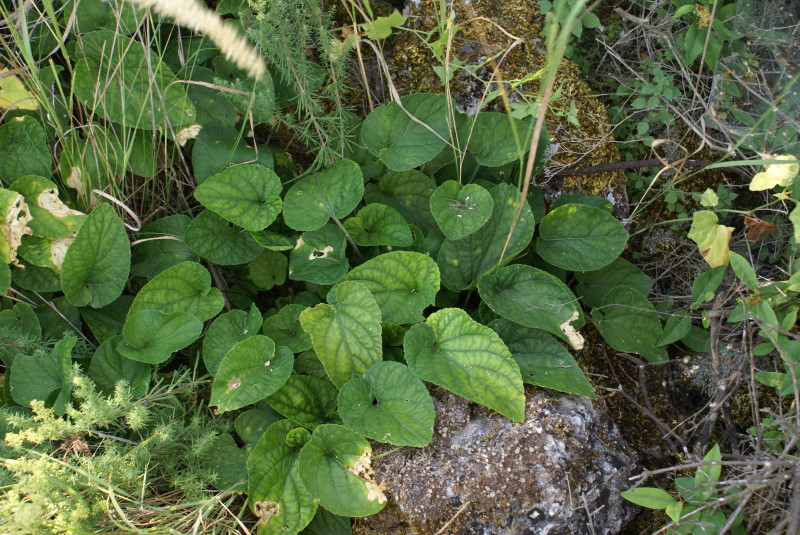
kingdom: Plantae
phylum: Tracheophyta
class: Magnoliopsida
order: Malpighiales
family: Violaceae
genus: Viola
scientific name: Viola
